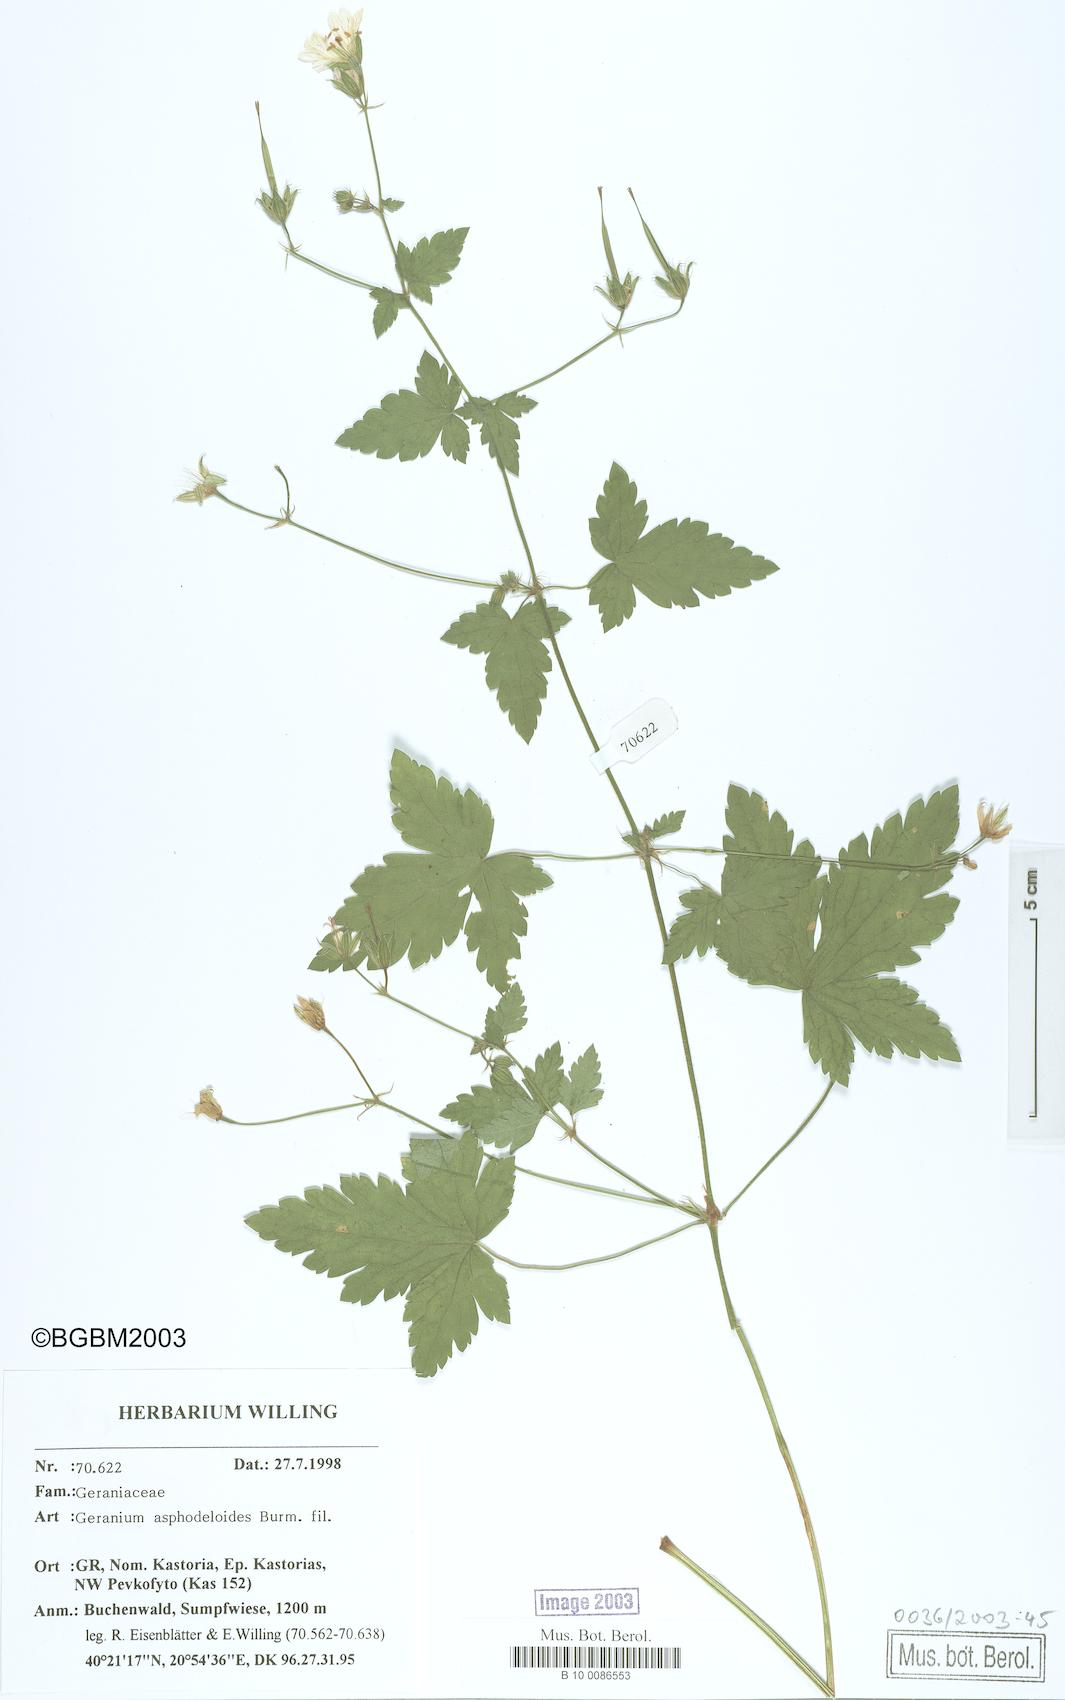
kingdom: Plantae
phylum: Tracheophyta
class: Magnoliopsida
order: Geraniales
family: Geraniaceae
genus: Geranium
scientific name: Geranium asphodeloides
